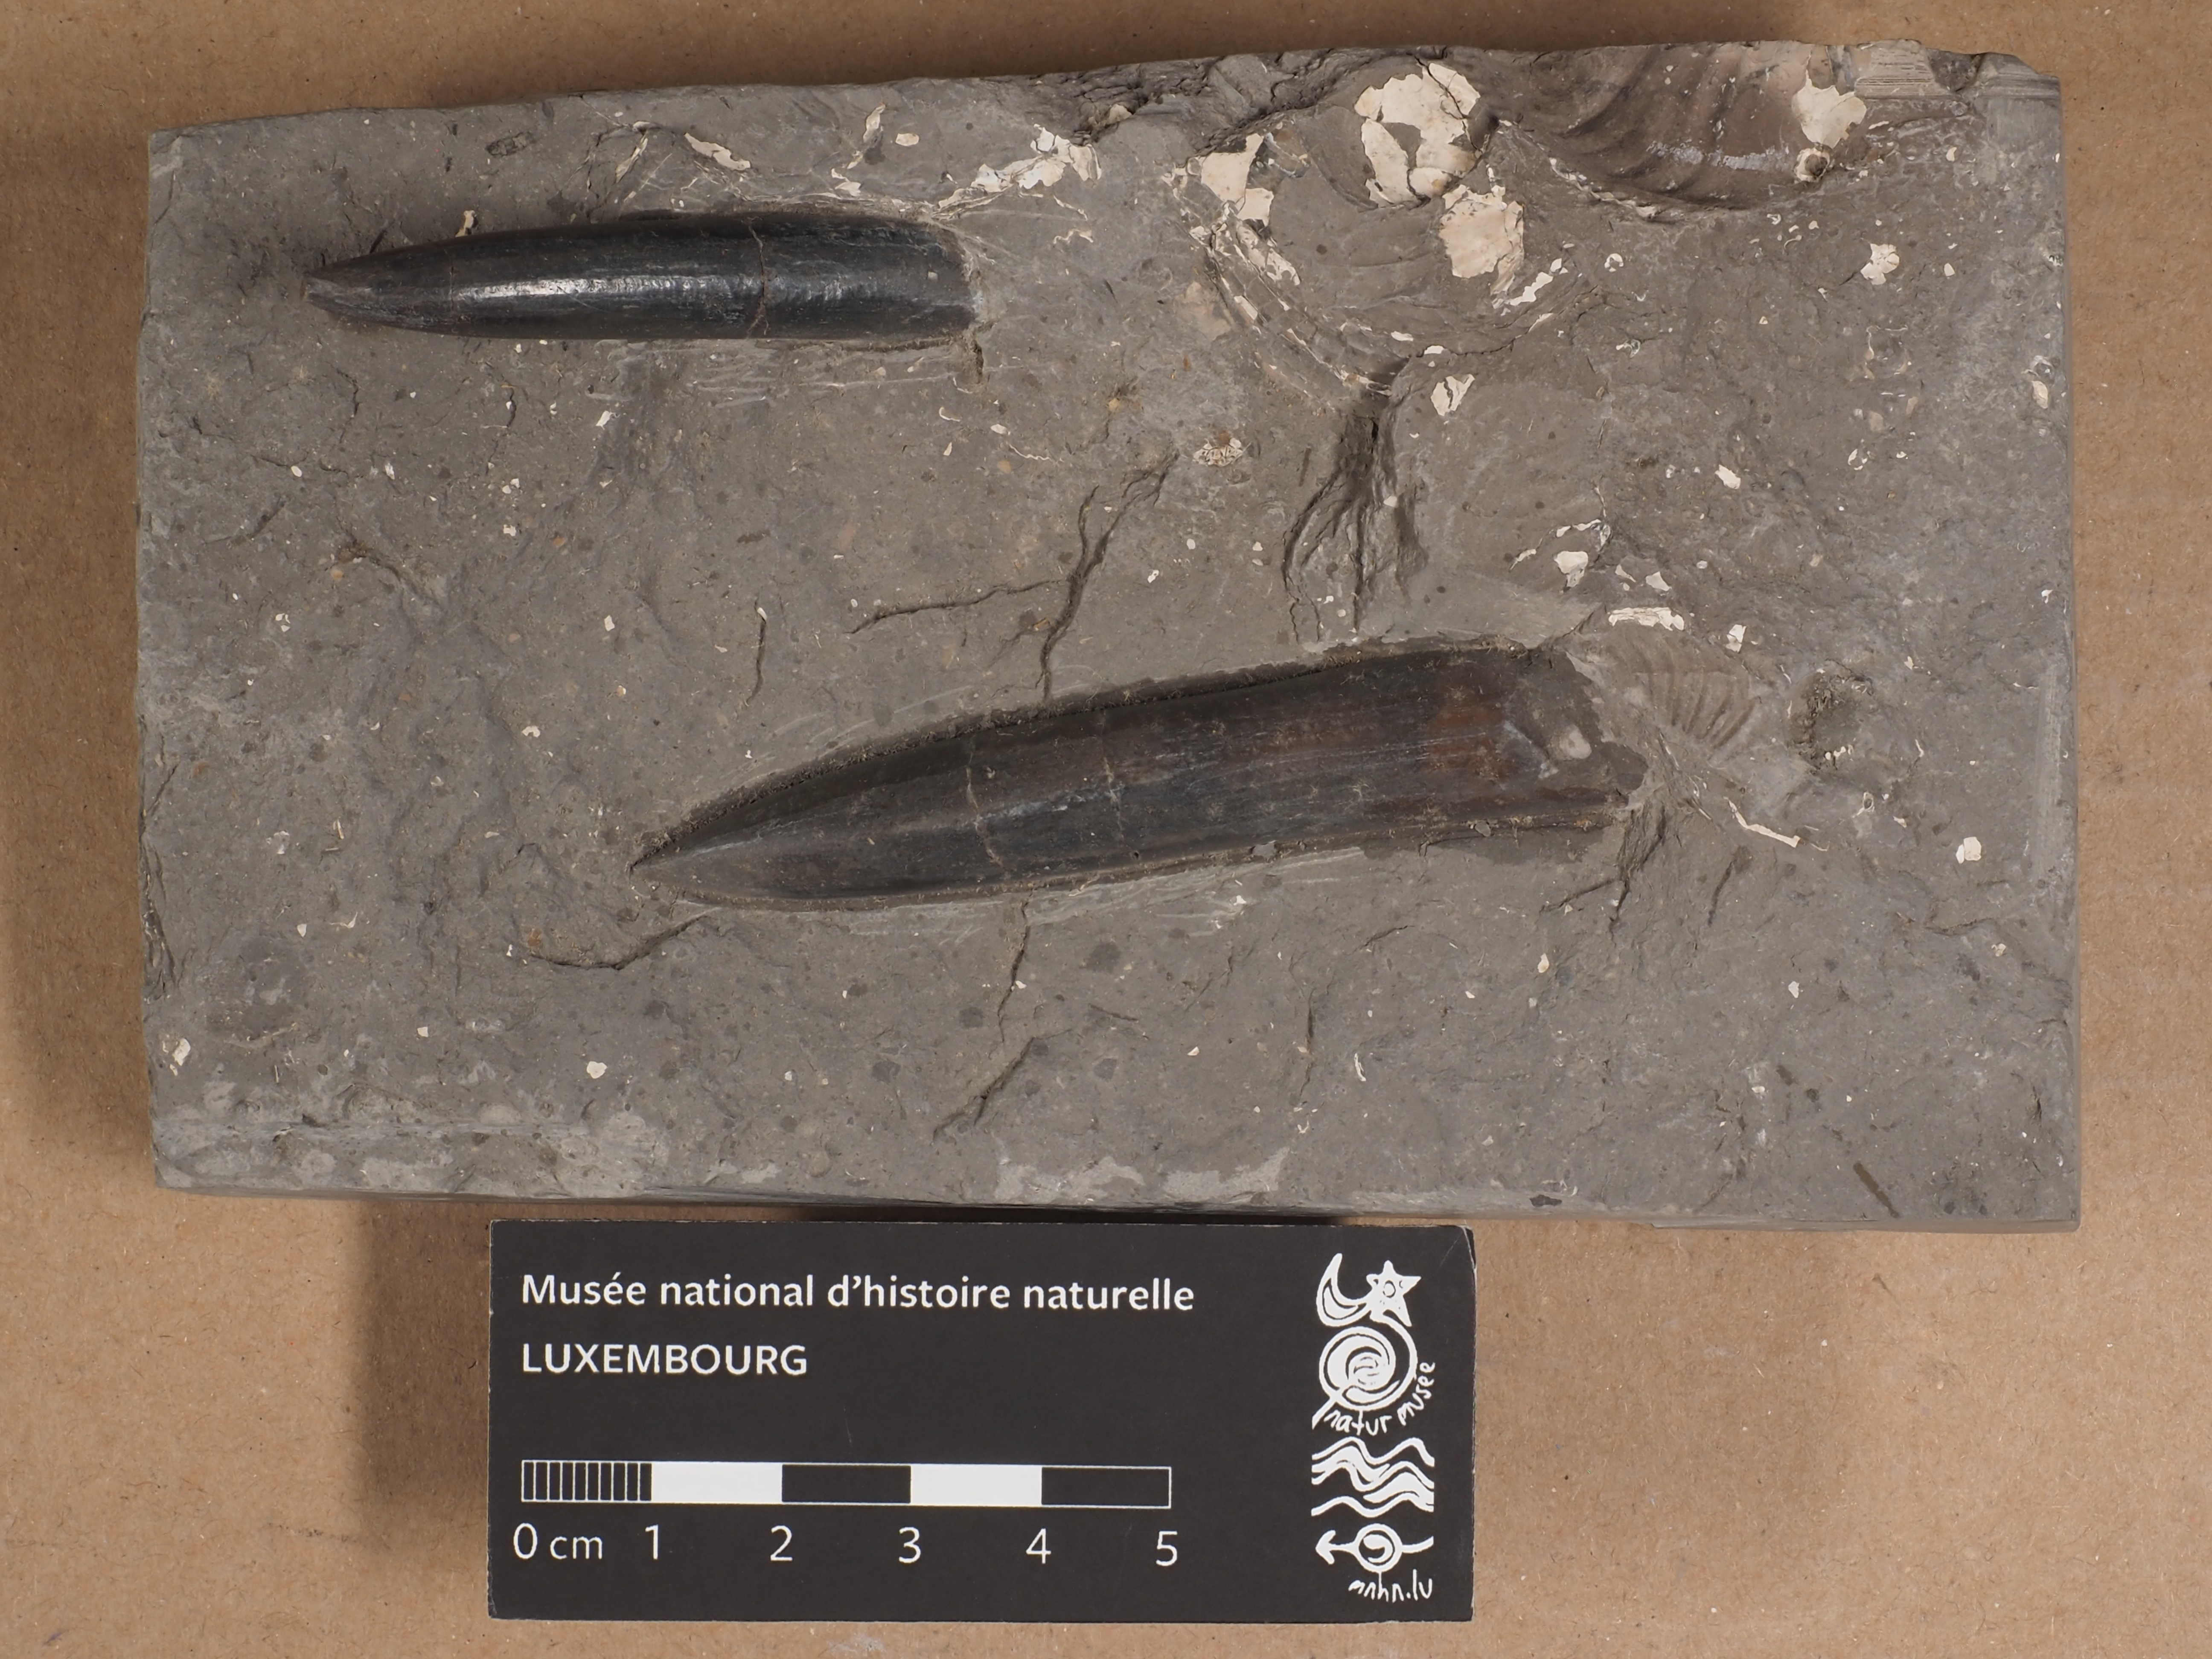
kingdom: Animalia
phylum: Mollusca
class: Cephalopoda
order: Belemnitida
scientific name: Belemnitida
